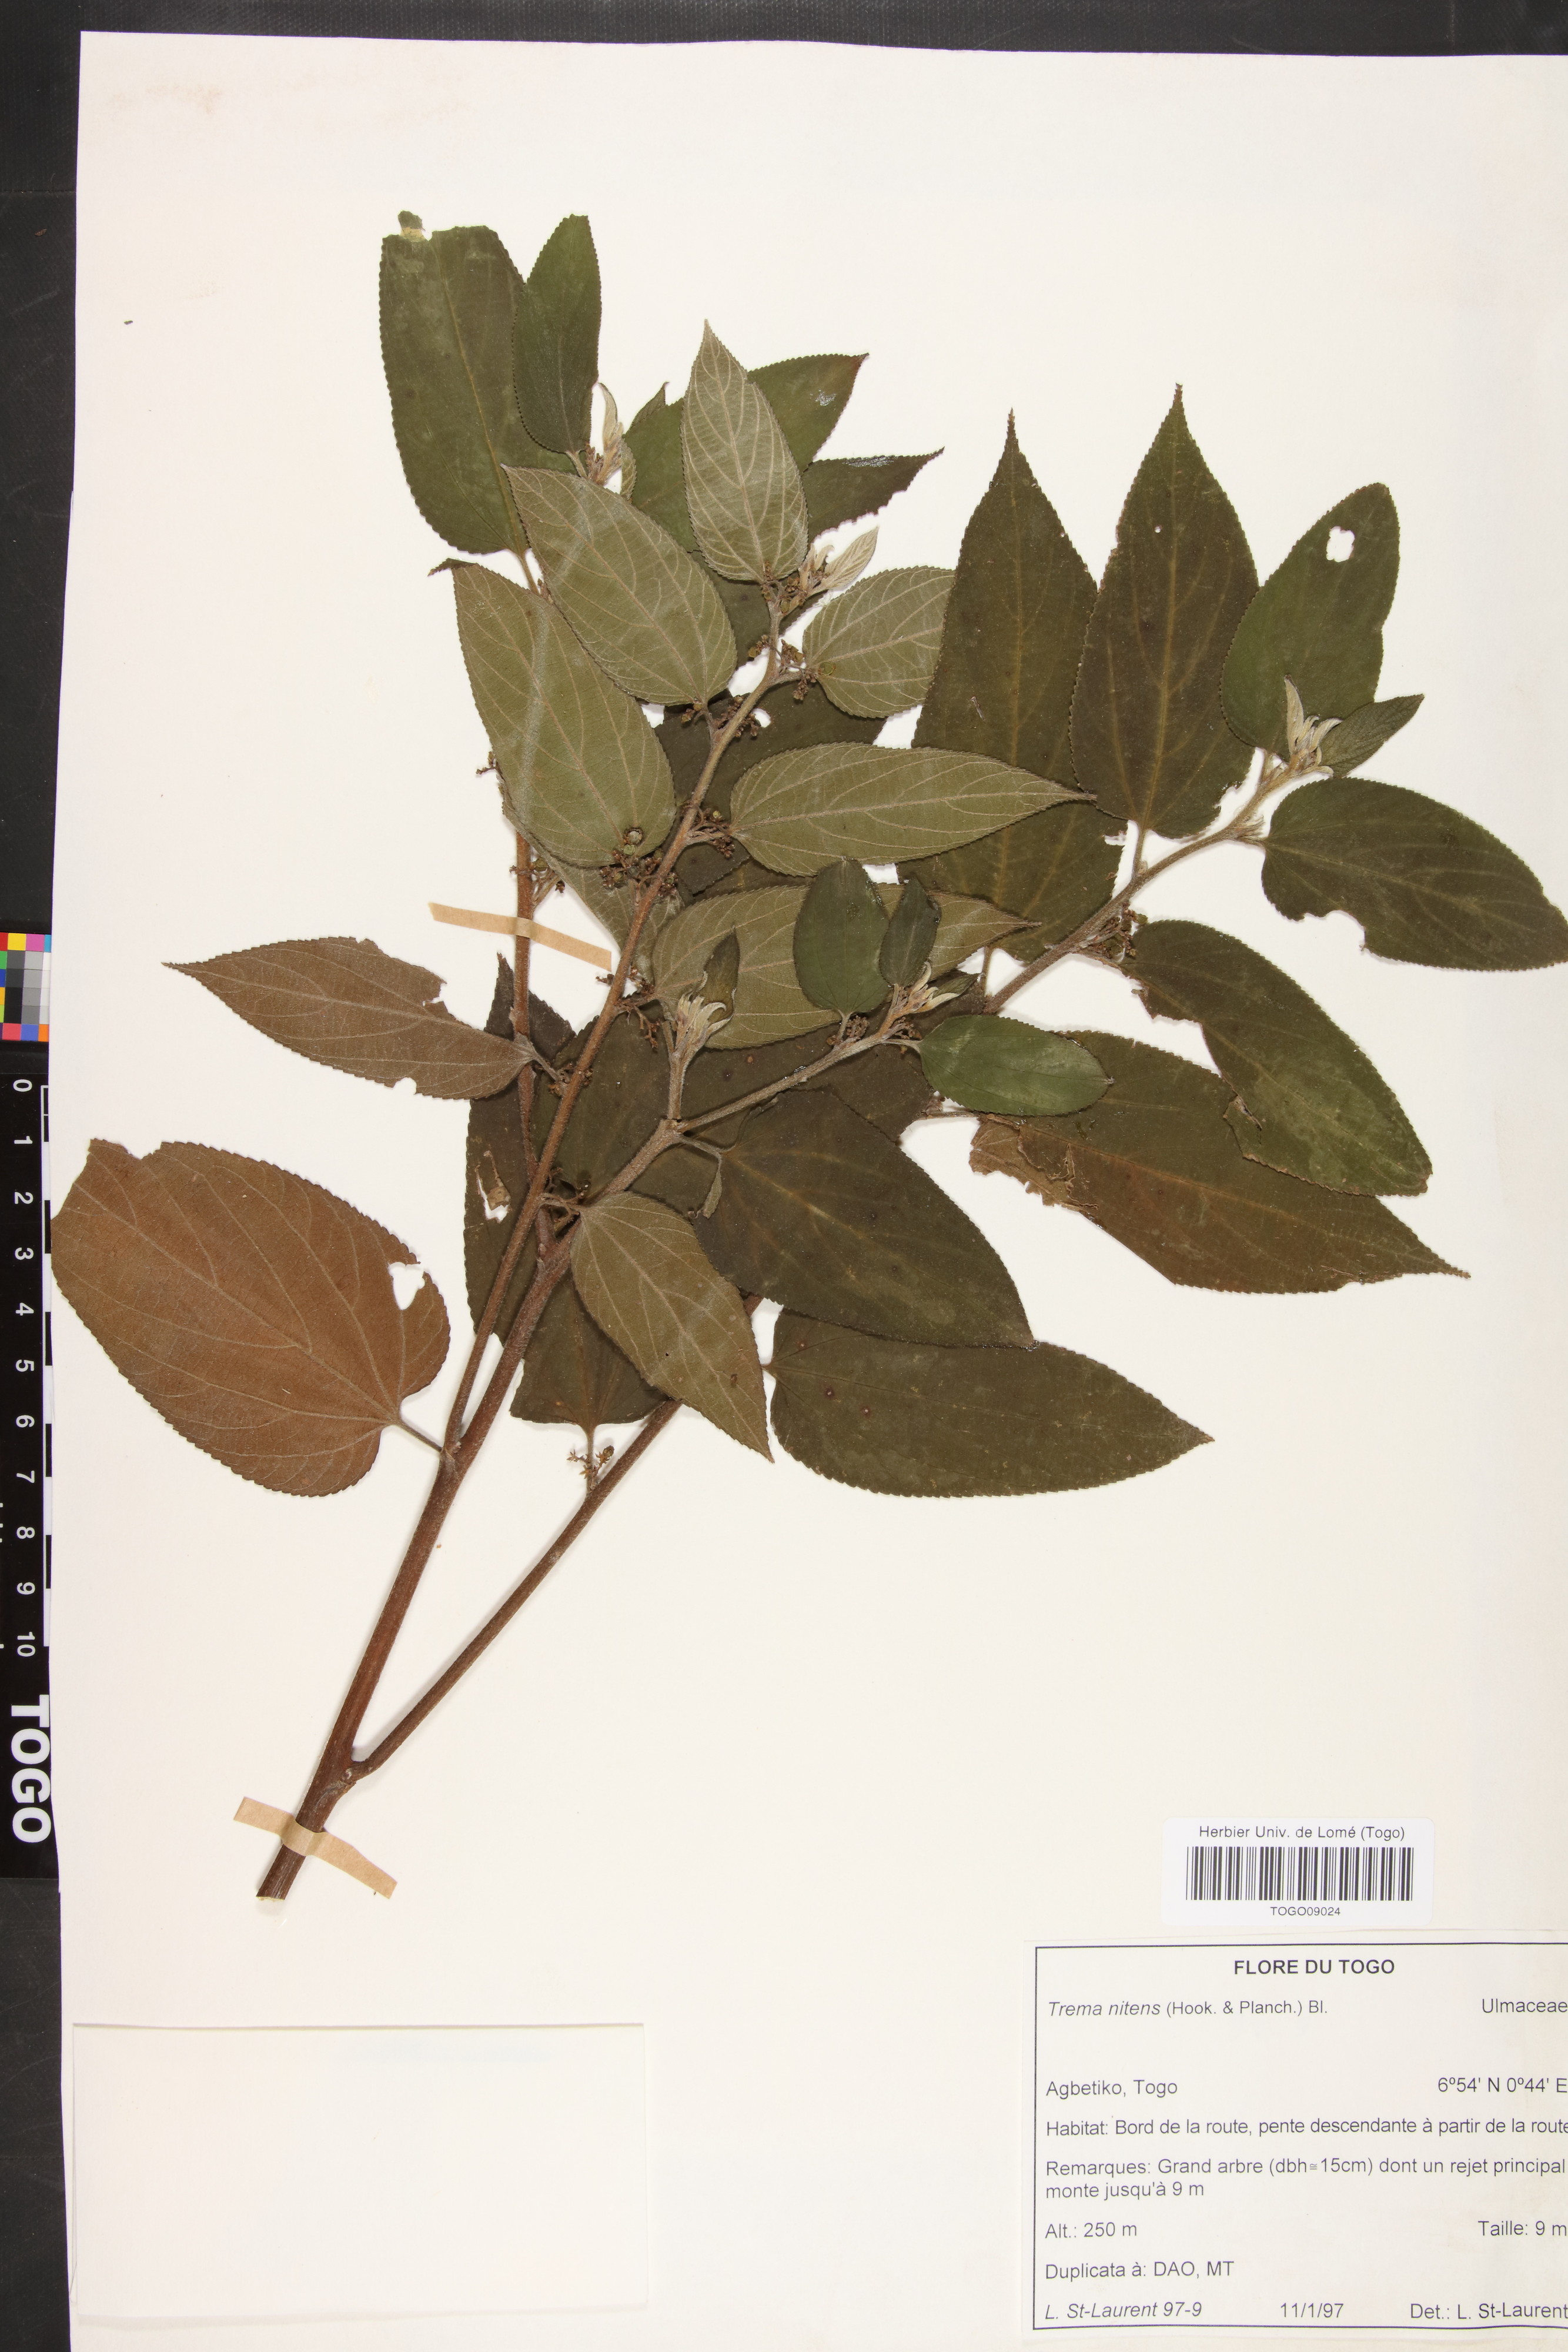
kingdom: Plantae
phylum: Tracheophyta
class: Magnoliopsida
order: Rosales
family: Cannabaceae
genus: Trema
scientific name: Trema orientale
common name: Indian charcoal tree
